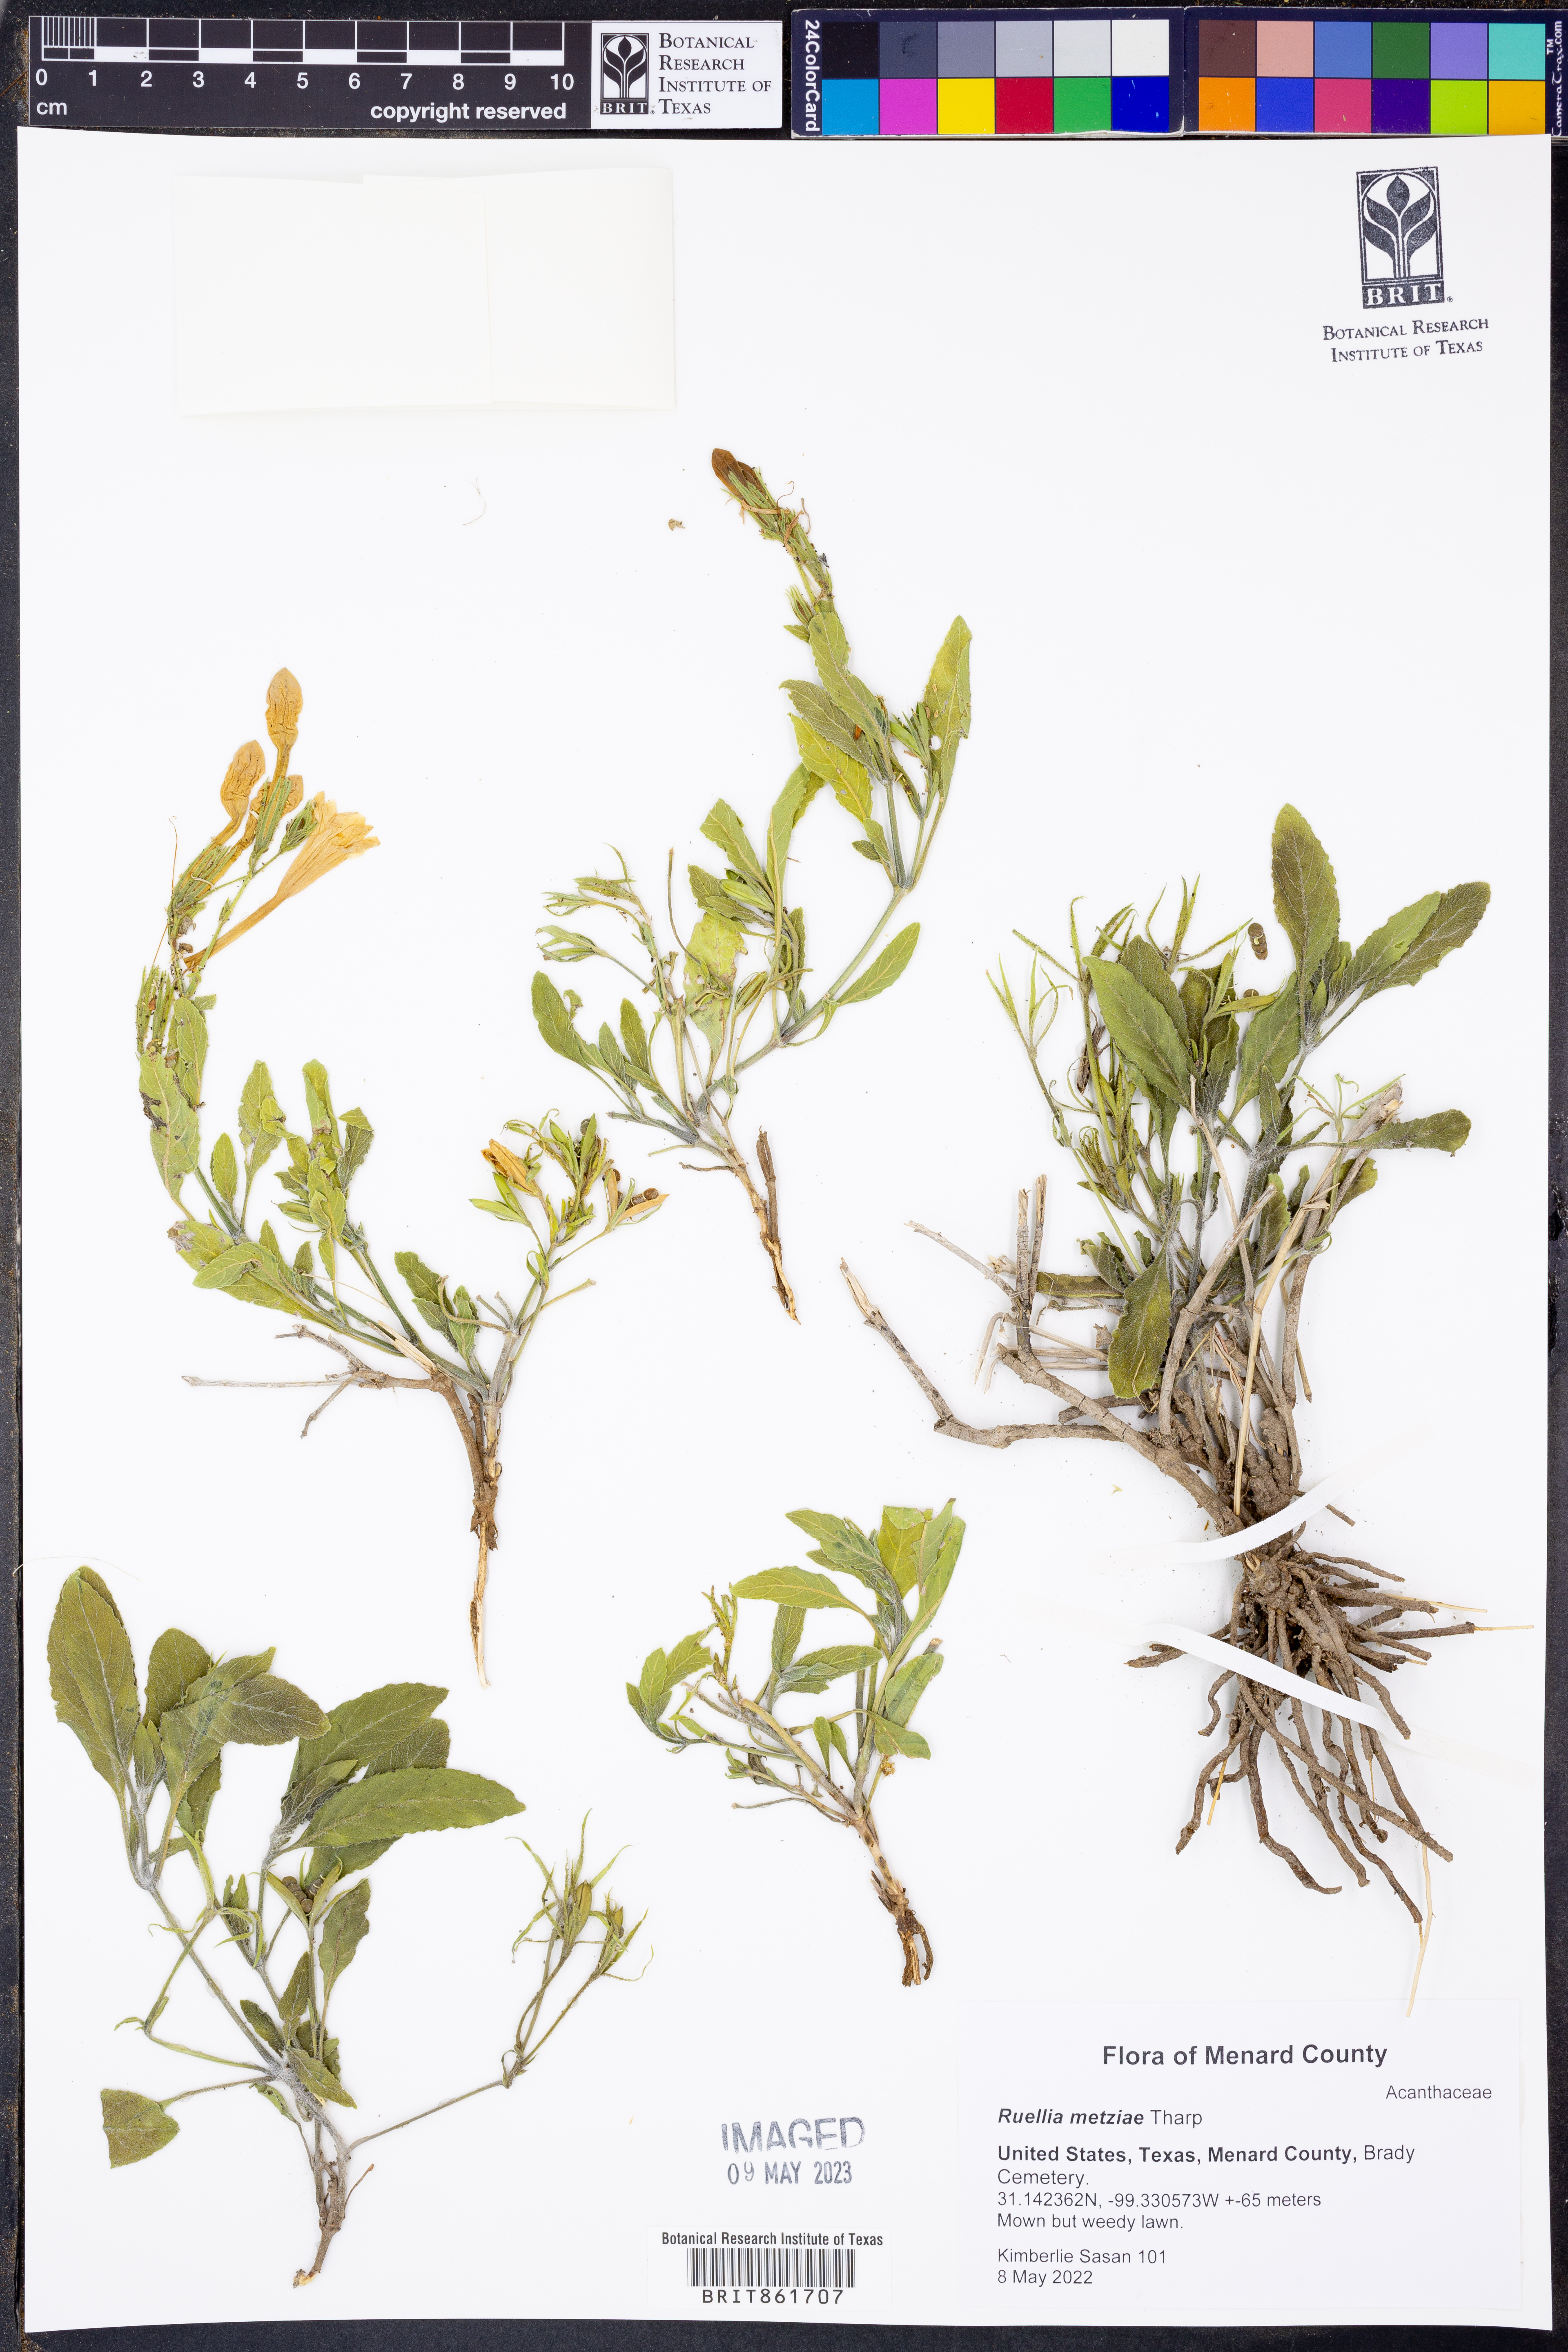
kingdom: Plantae
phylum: Tracheophyta
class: Magnoliopsida
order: Lamiales
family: Acanthaceae
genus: Ruellia
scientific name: Ruellia metziae
